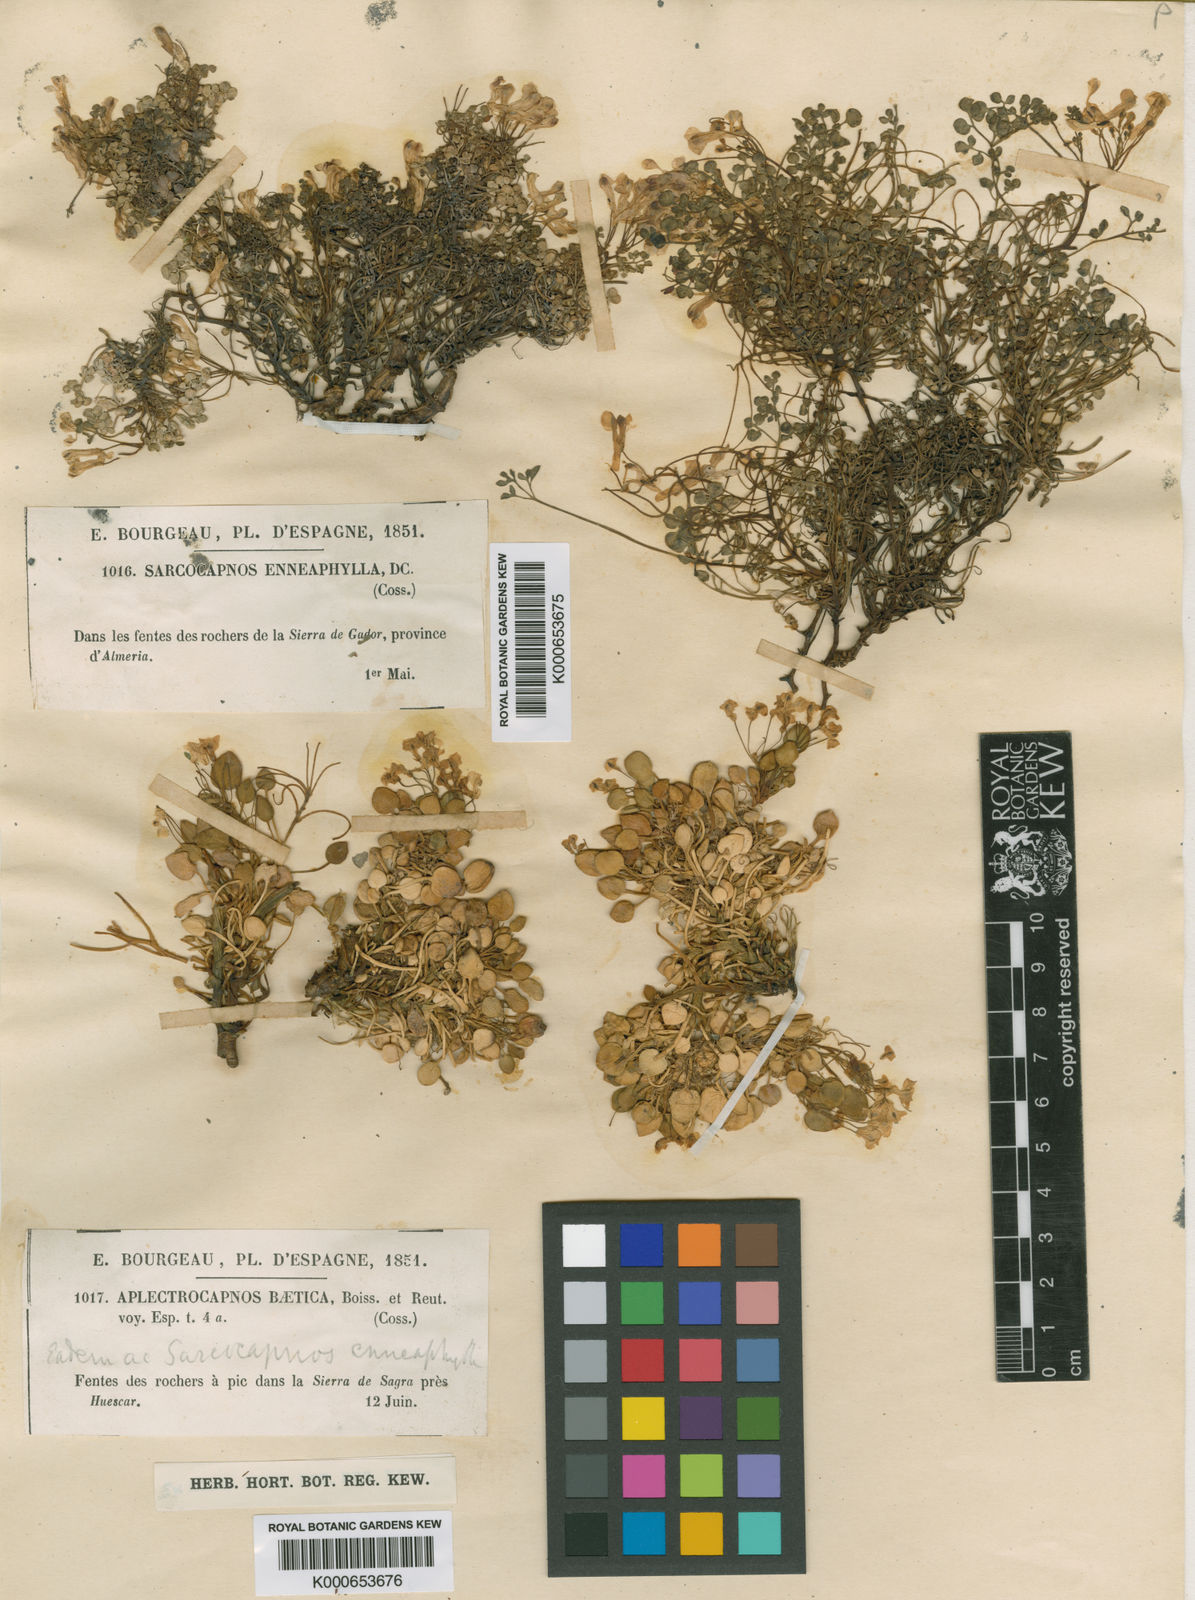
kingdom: Plantae
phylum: Tracheophyta
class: Magnoliopsida
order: Ranunculales
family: Papaveraceae
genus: Sarcocapnos
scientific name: Sarcocapnos baetica
